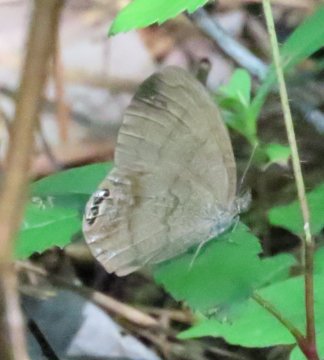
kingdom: Animalia
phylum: Arthropoda
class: Insecta
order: Lepidoptera
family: Nymphalidae
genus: Euptychia
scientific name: Euptychia cornelius
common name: Gemmed Satyr
